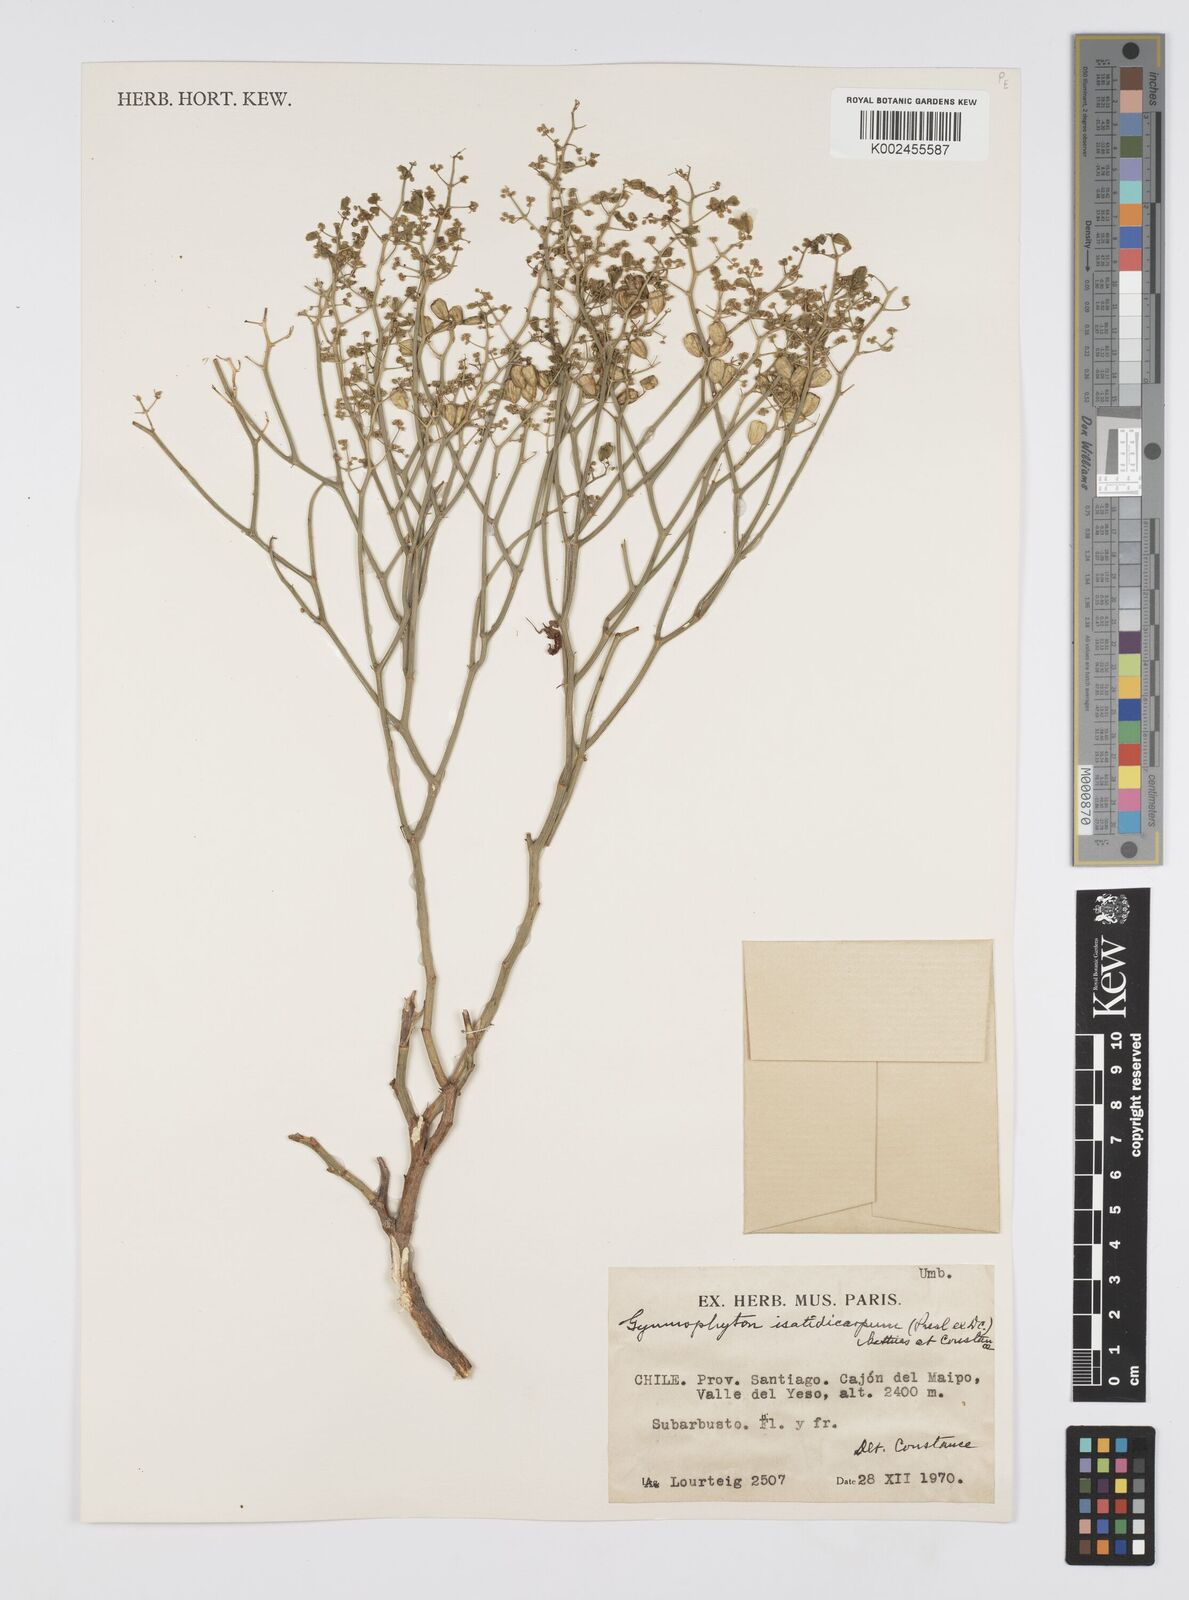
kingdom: Plantae
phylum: Tracheophyta
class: Magnoliopsida
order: Apiales
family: Apiaceae
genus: Gymnophyton
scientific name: Gymnophyton isatidicarpum
